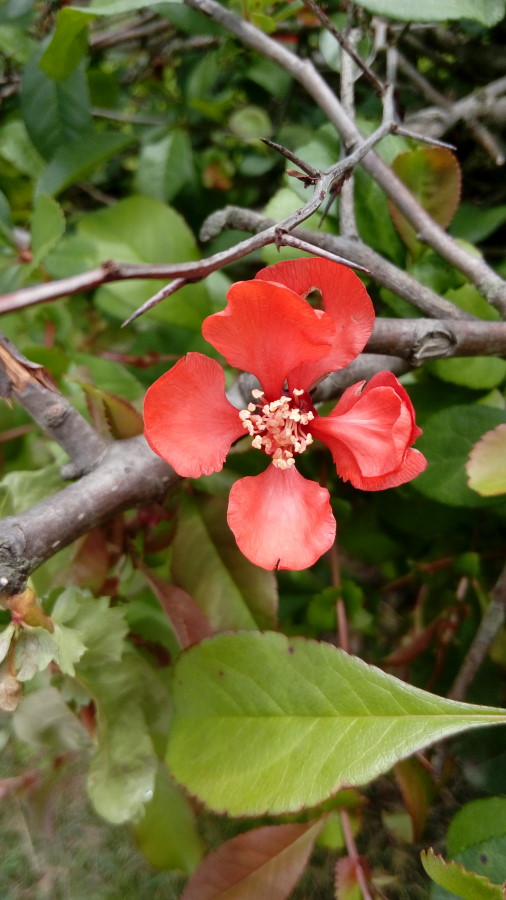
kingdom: Plantae
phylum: Tracheophyta
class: Magnoliopsida
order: Myrtales
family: Lythraceae
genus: Punica
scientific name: Punica
